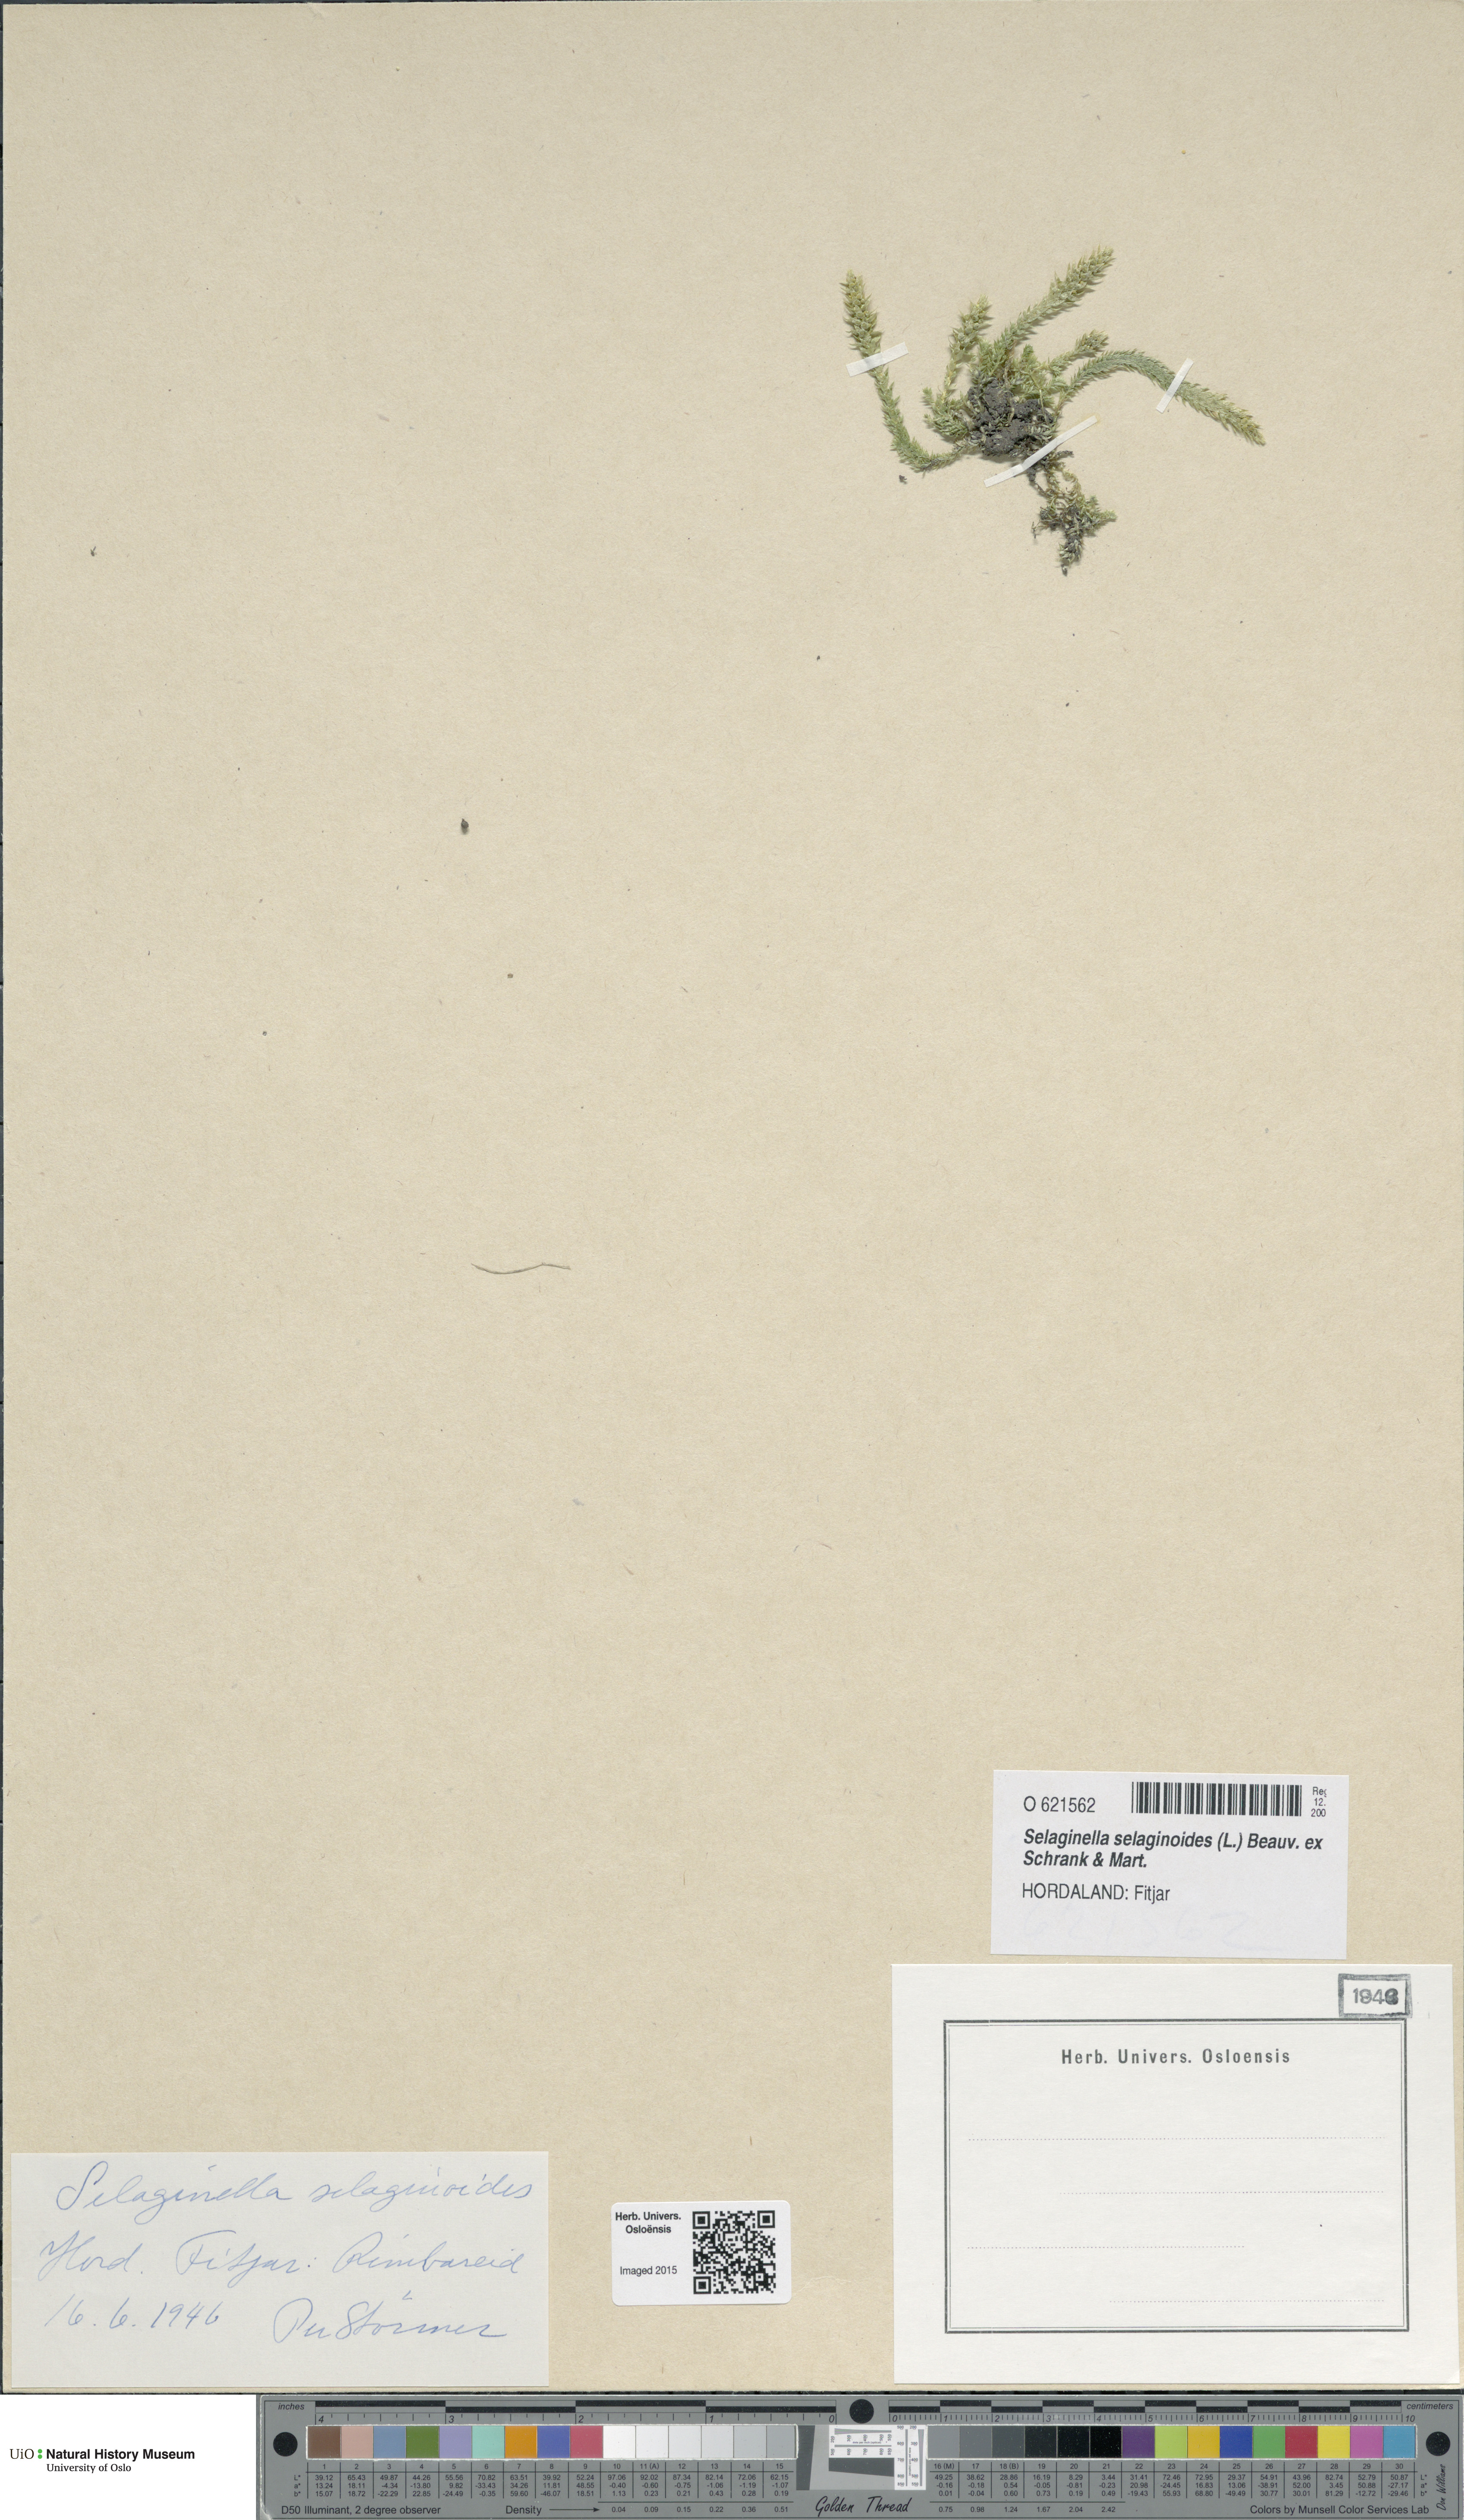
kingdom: Plantae
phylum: Tracheophyta
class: Lycopodiopsida
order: Selaginellales
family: Selaginellaceae
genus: Selaginella
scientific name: Selaginella selaginoides
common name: Prickly mountain-moss
